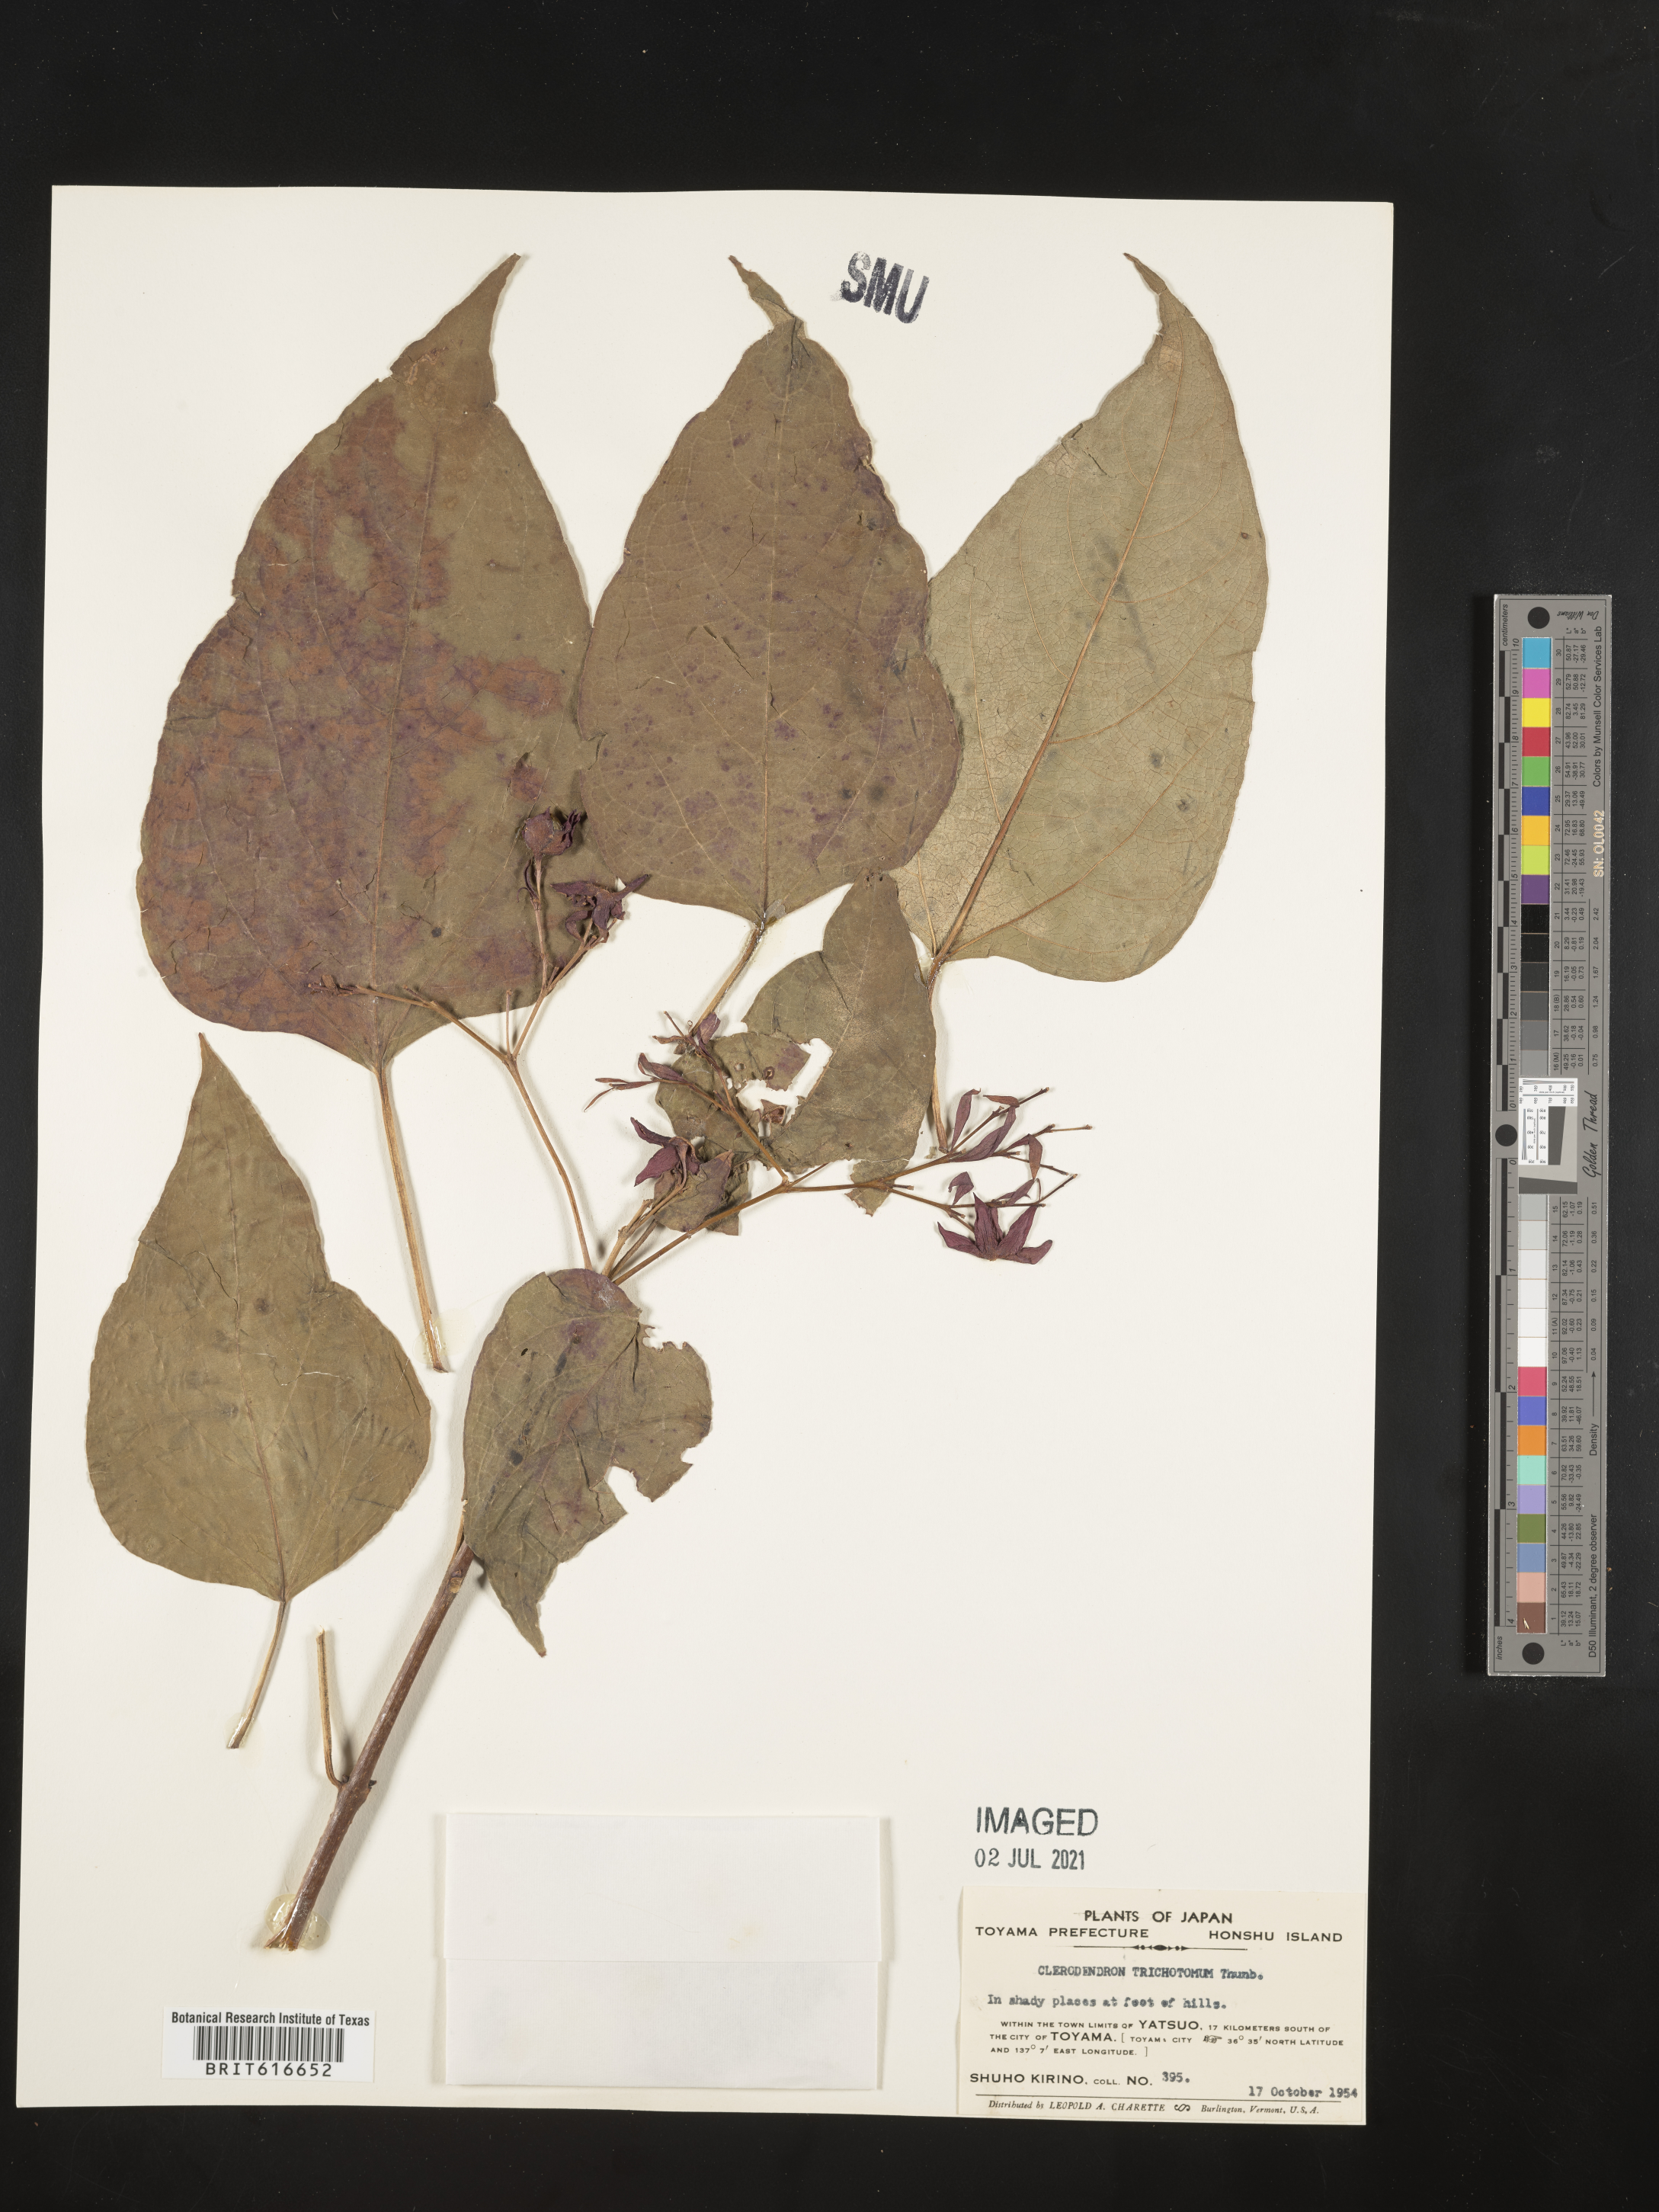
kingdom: Plantae
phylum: Tracheophyta
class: Magnoliopsida
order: Lamiales
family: Lamiaceae
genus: Clerodendrum
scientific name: Clerodendrum trichotomum
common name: Harlequin glorybower
